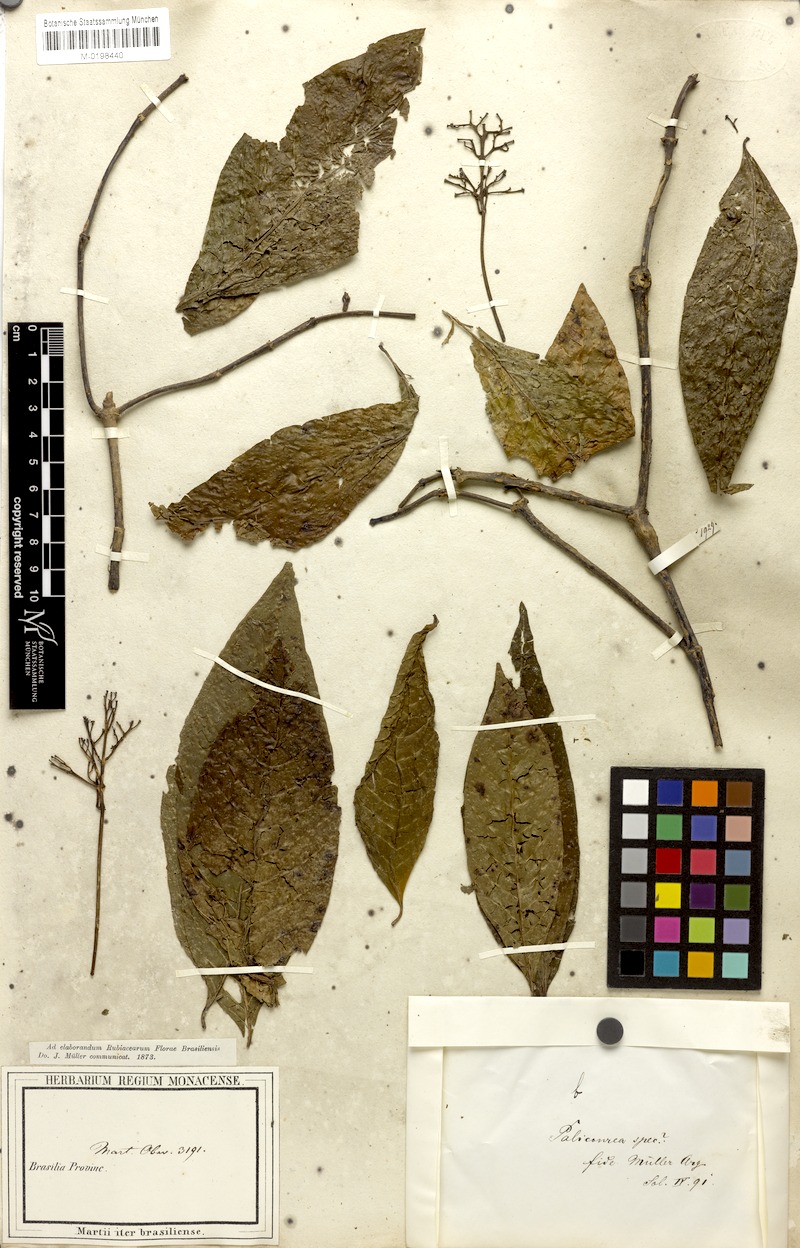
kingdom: Plantae
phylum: Tracheophyta
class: Magnoliopsida
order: Gentianales
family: Rubiaceae
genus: Palicourea
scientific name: Palicourea microbotrys
